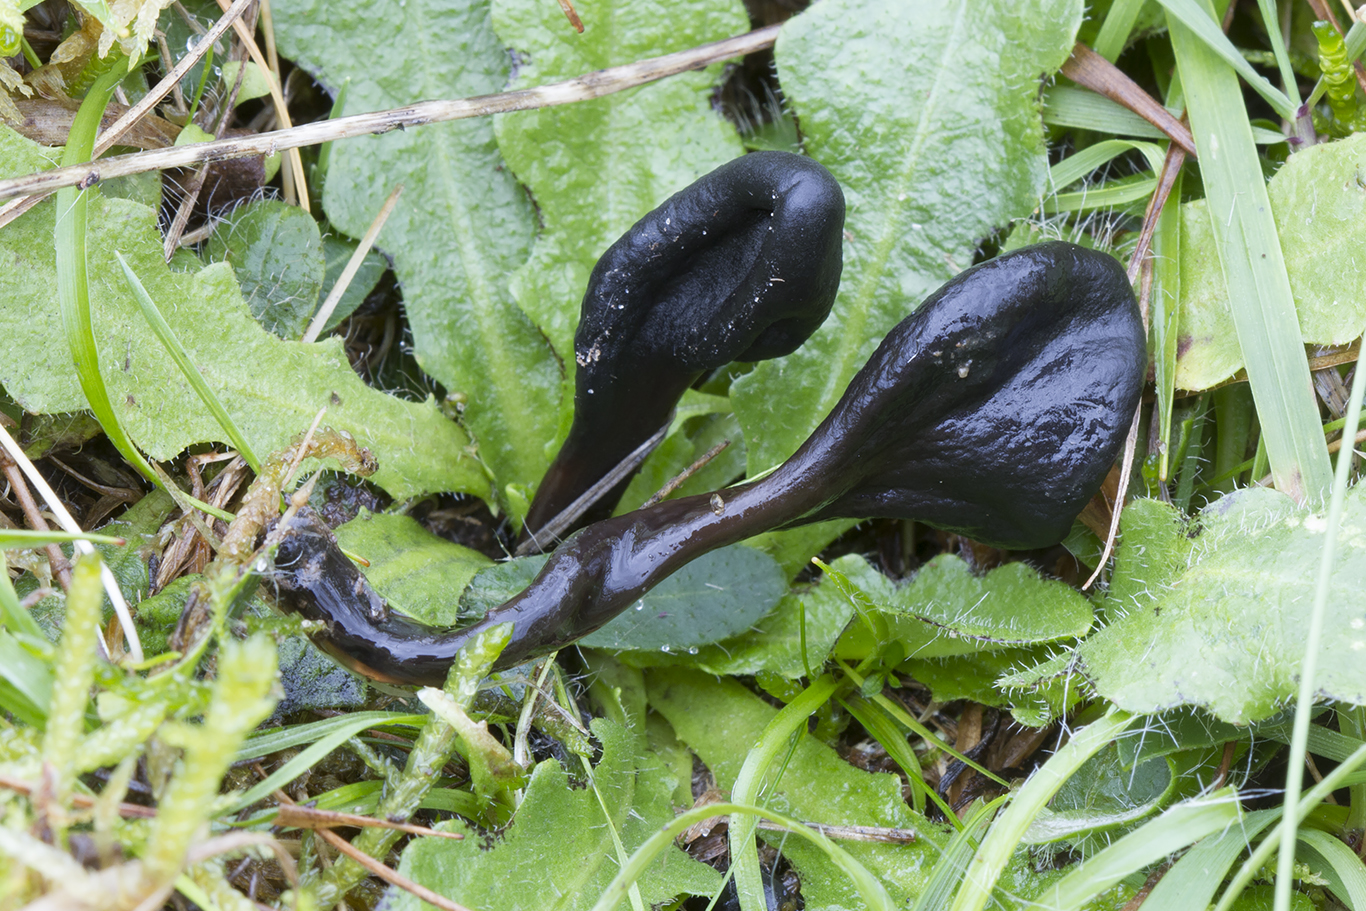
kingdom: Fungi
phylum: Ascomycota
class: Geoglossomycetes
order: Geoglossales
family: Geoglossaceae
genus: Glutinoglossum
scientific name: Glutinoglossum glutinosum
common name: slimet jordtunge
